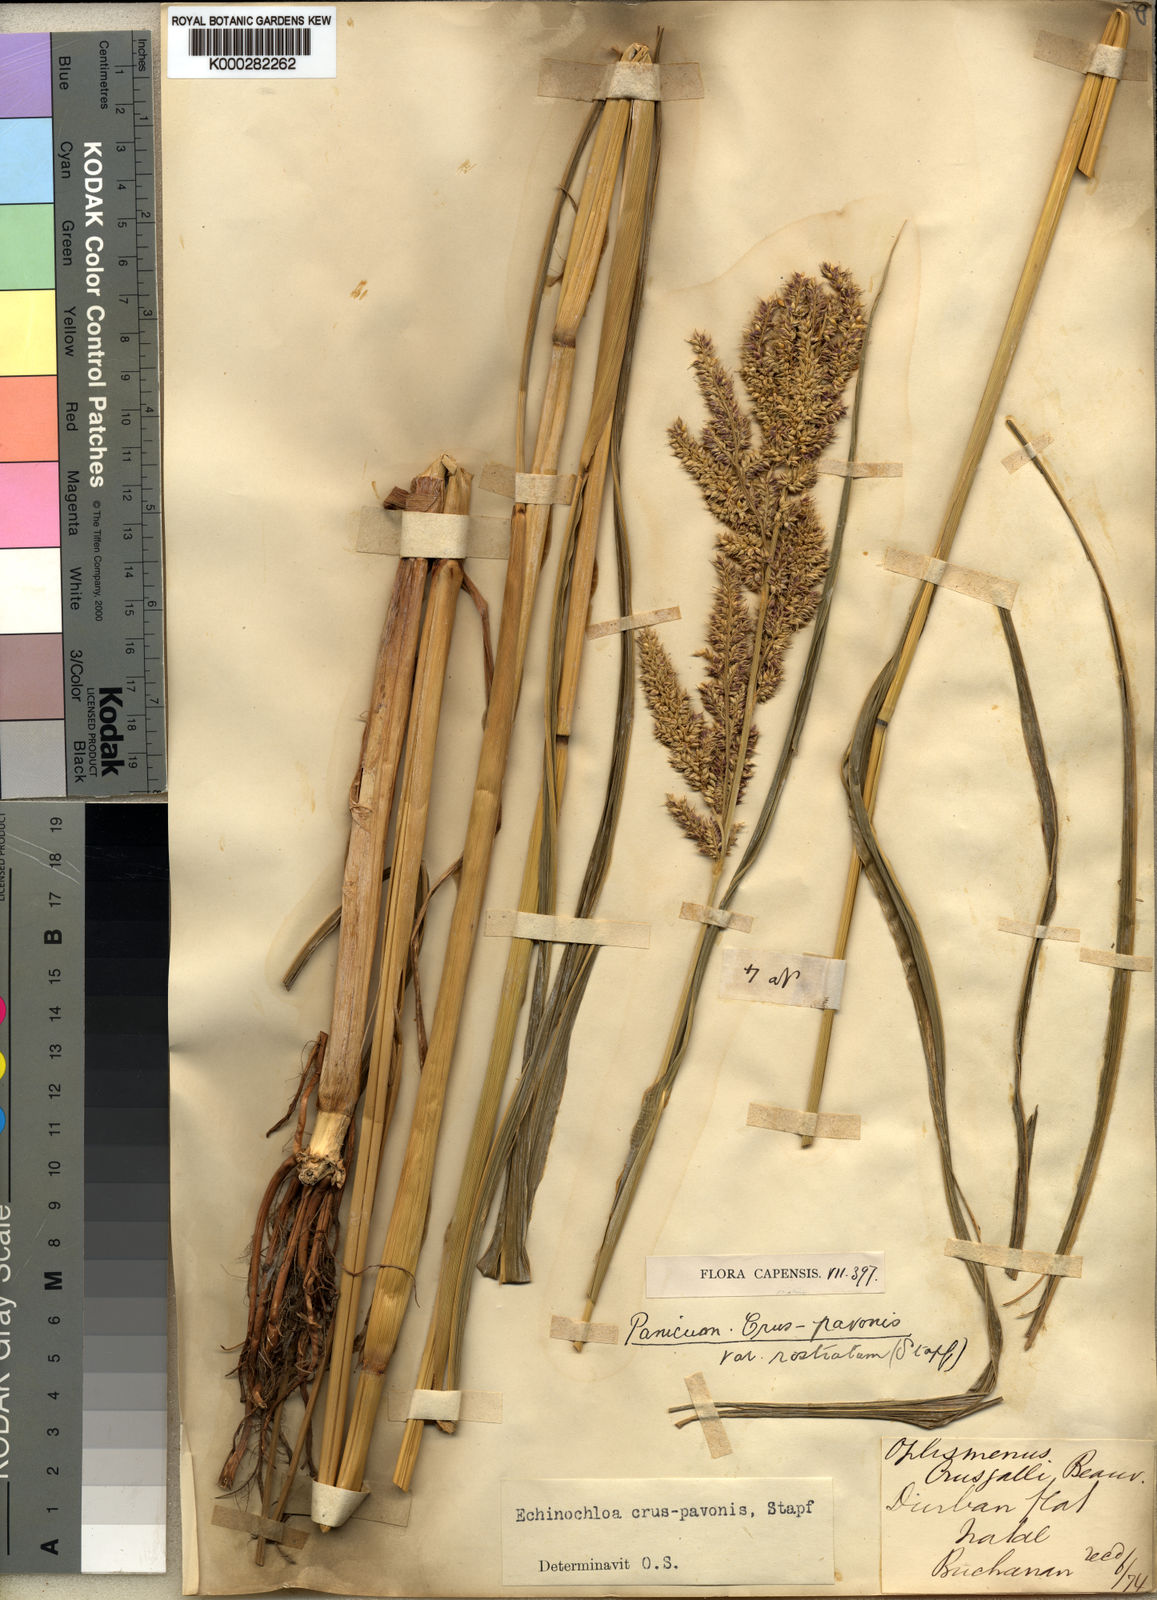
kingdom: Plantae
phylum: Tracheophyta
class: Liliopsida
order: Poales
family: Poaceae
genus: Echinochloa
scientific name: Echinochloa crus-pavonis
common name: Gulf cockspur grass
